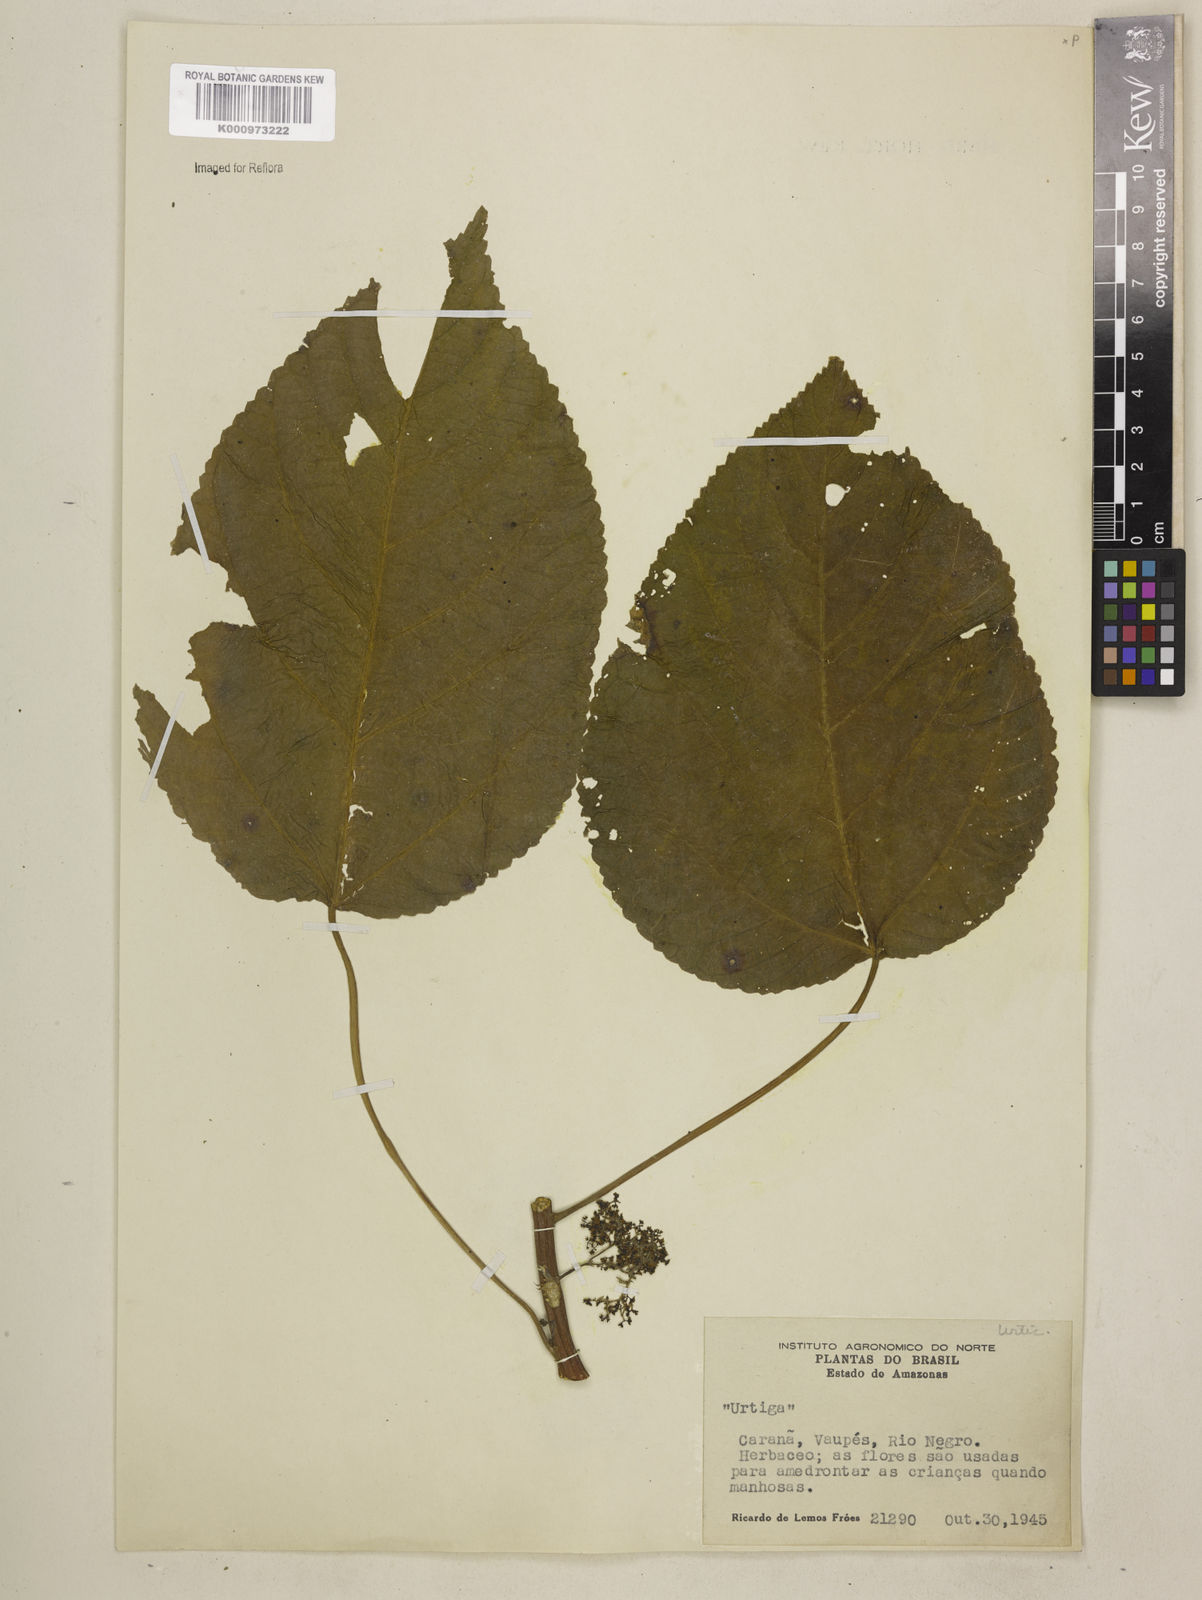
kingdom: Plantae
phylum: Tracheophyta
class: Magnoliopsida
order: Rosales
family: Urticaceae
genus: Urera
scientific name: Urera caracasana
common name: Flameberry
